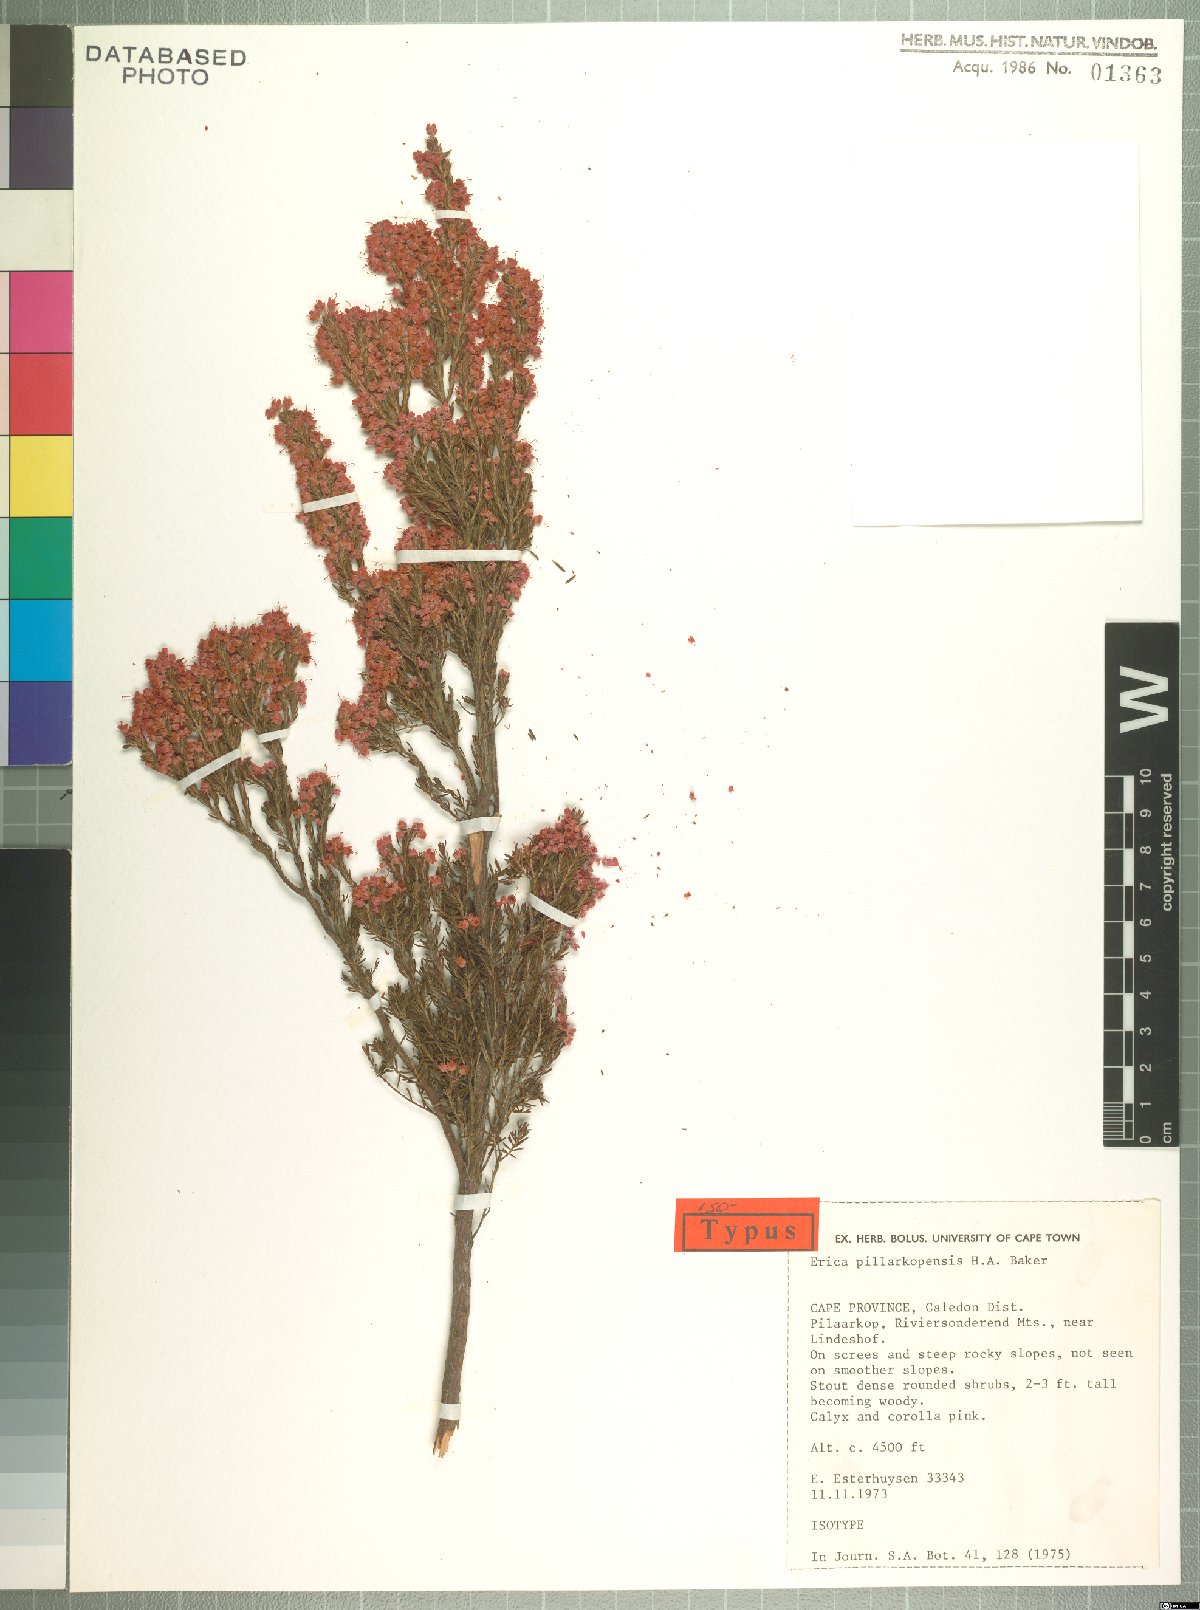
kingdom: Plantae
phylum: Tracheophyta
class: Magnoliopsida
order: Ericales
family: Ericaceae
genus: Erica
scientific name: Erica pillarkopensis
